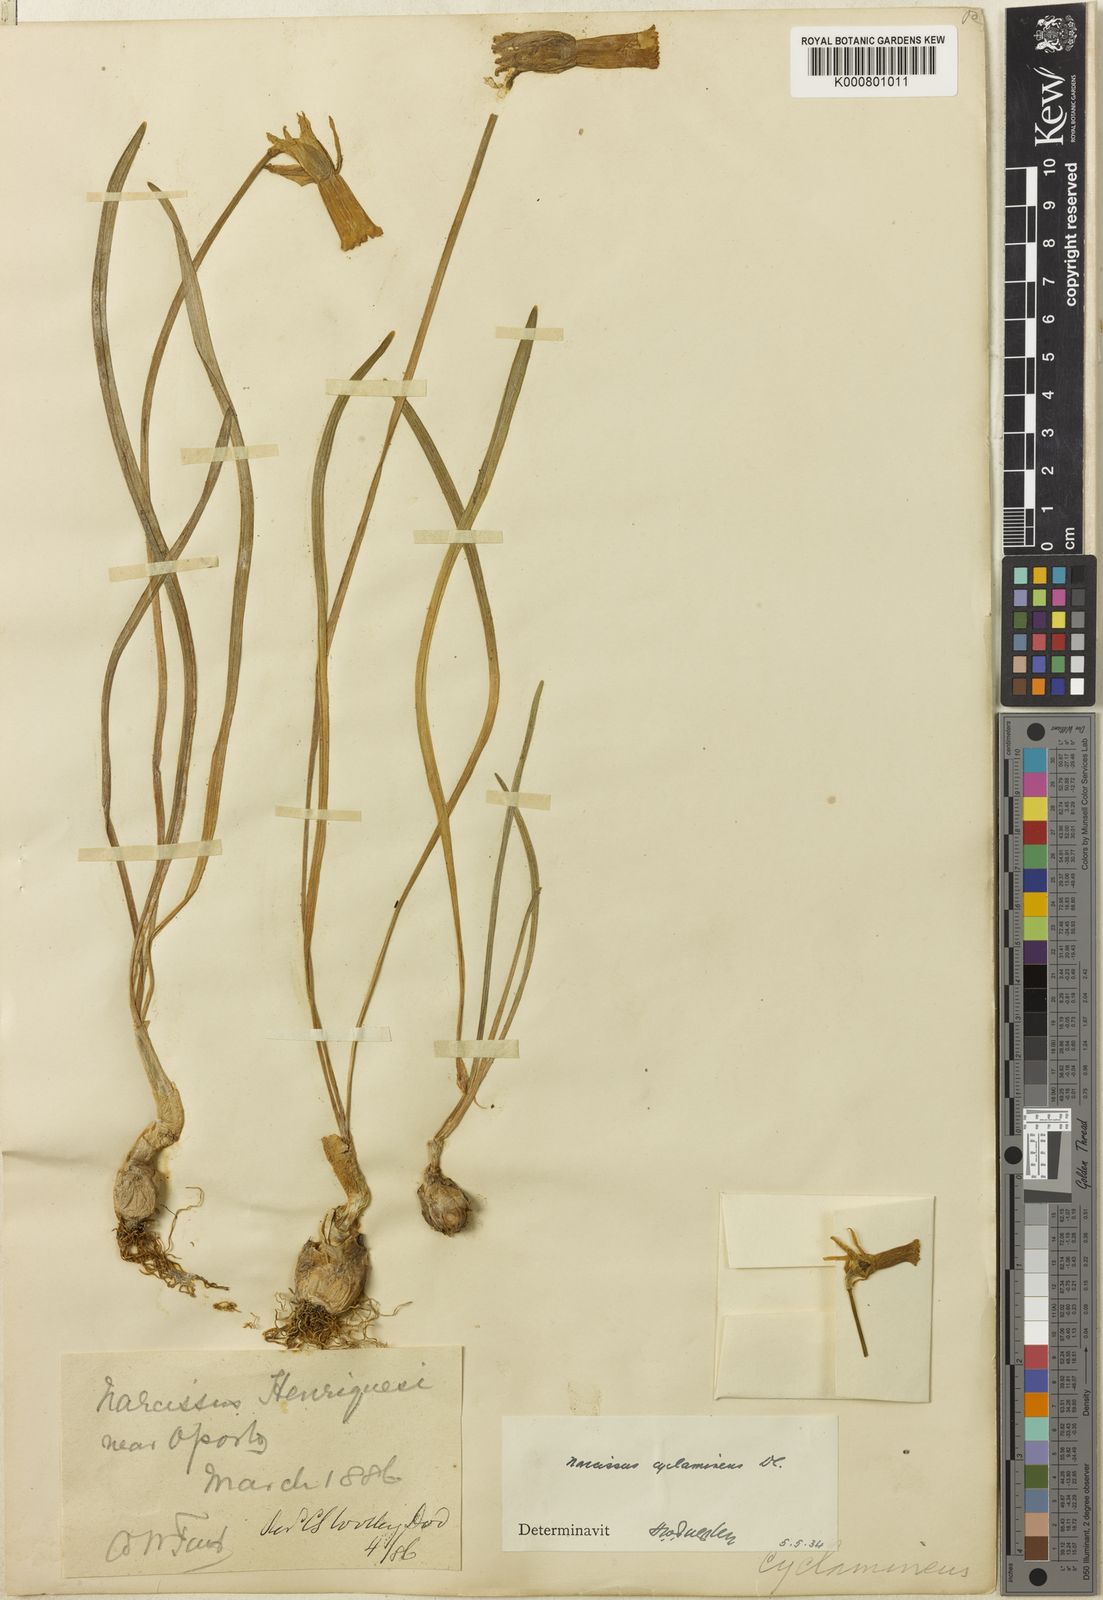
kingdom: Plantae
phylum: Tracheophyta
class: Liliopsida
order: Asparagales
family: Amaryllidaceae
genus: Narcissus
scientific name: Narcissus cyclamineus
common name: Cyclamen-flowered daffodil
